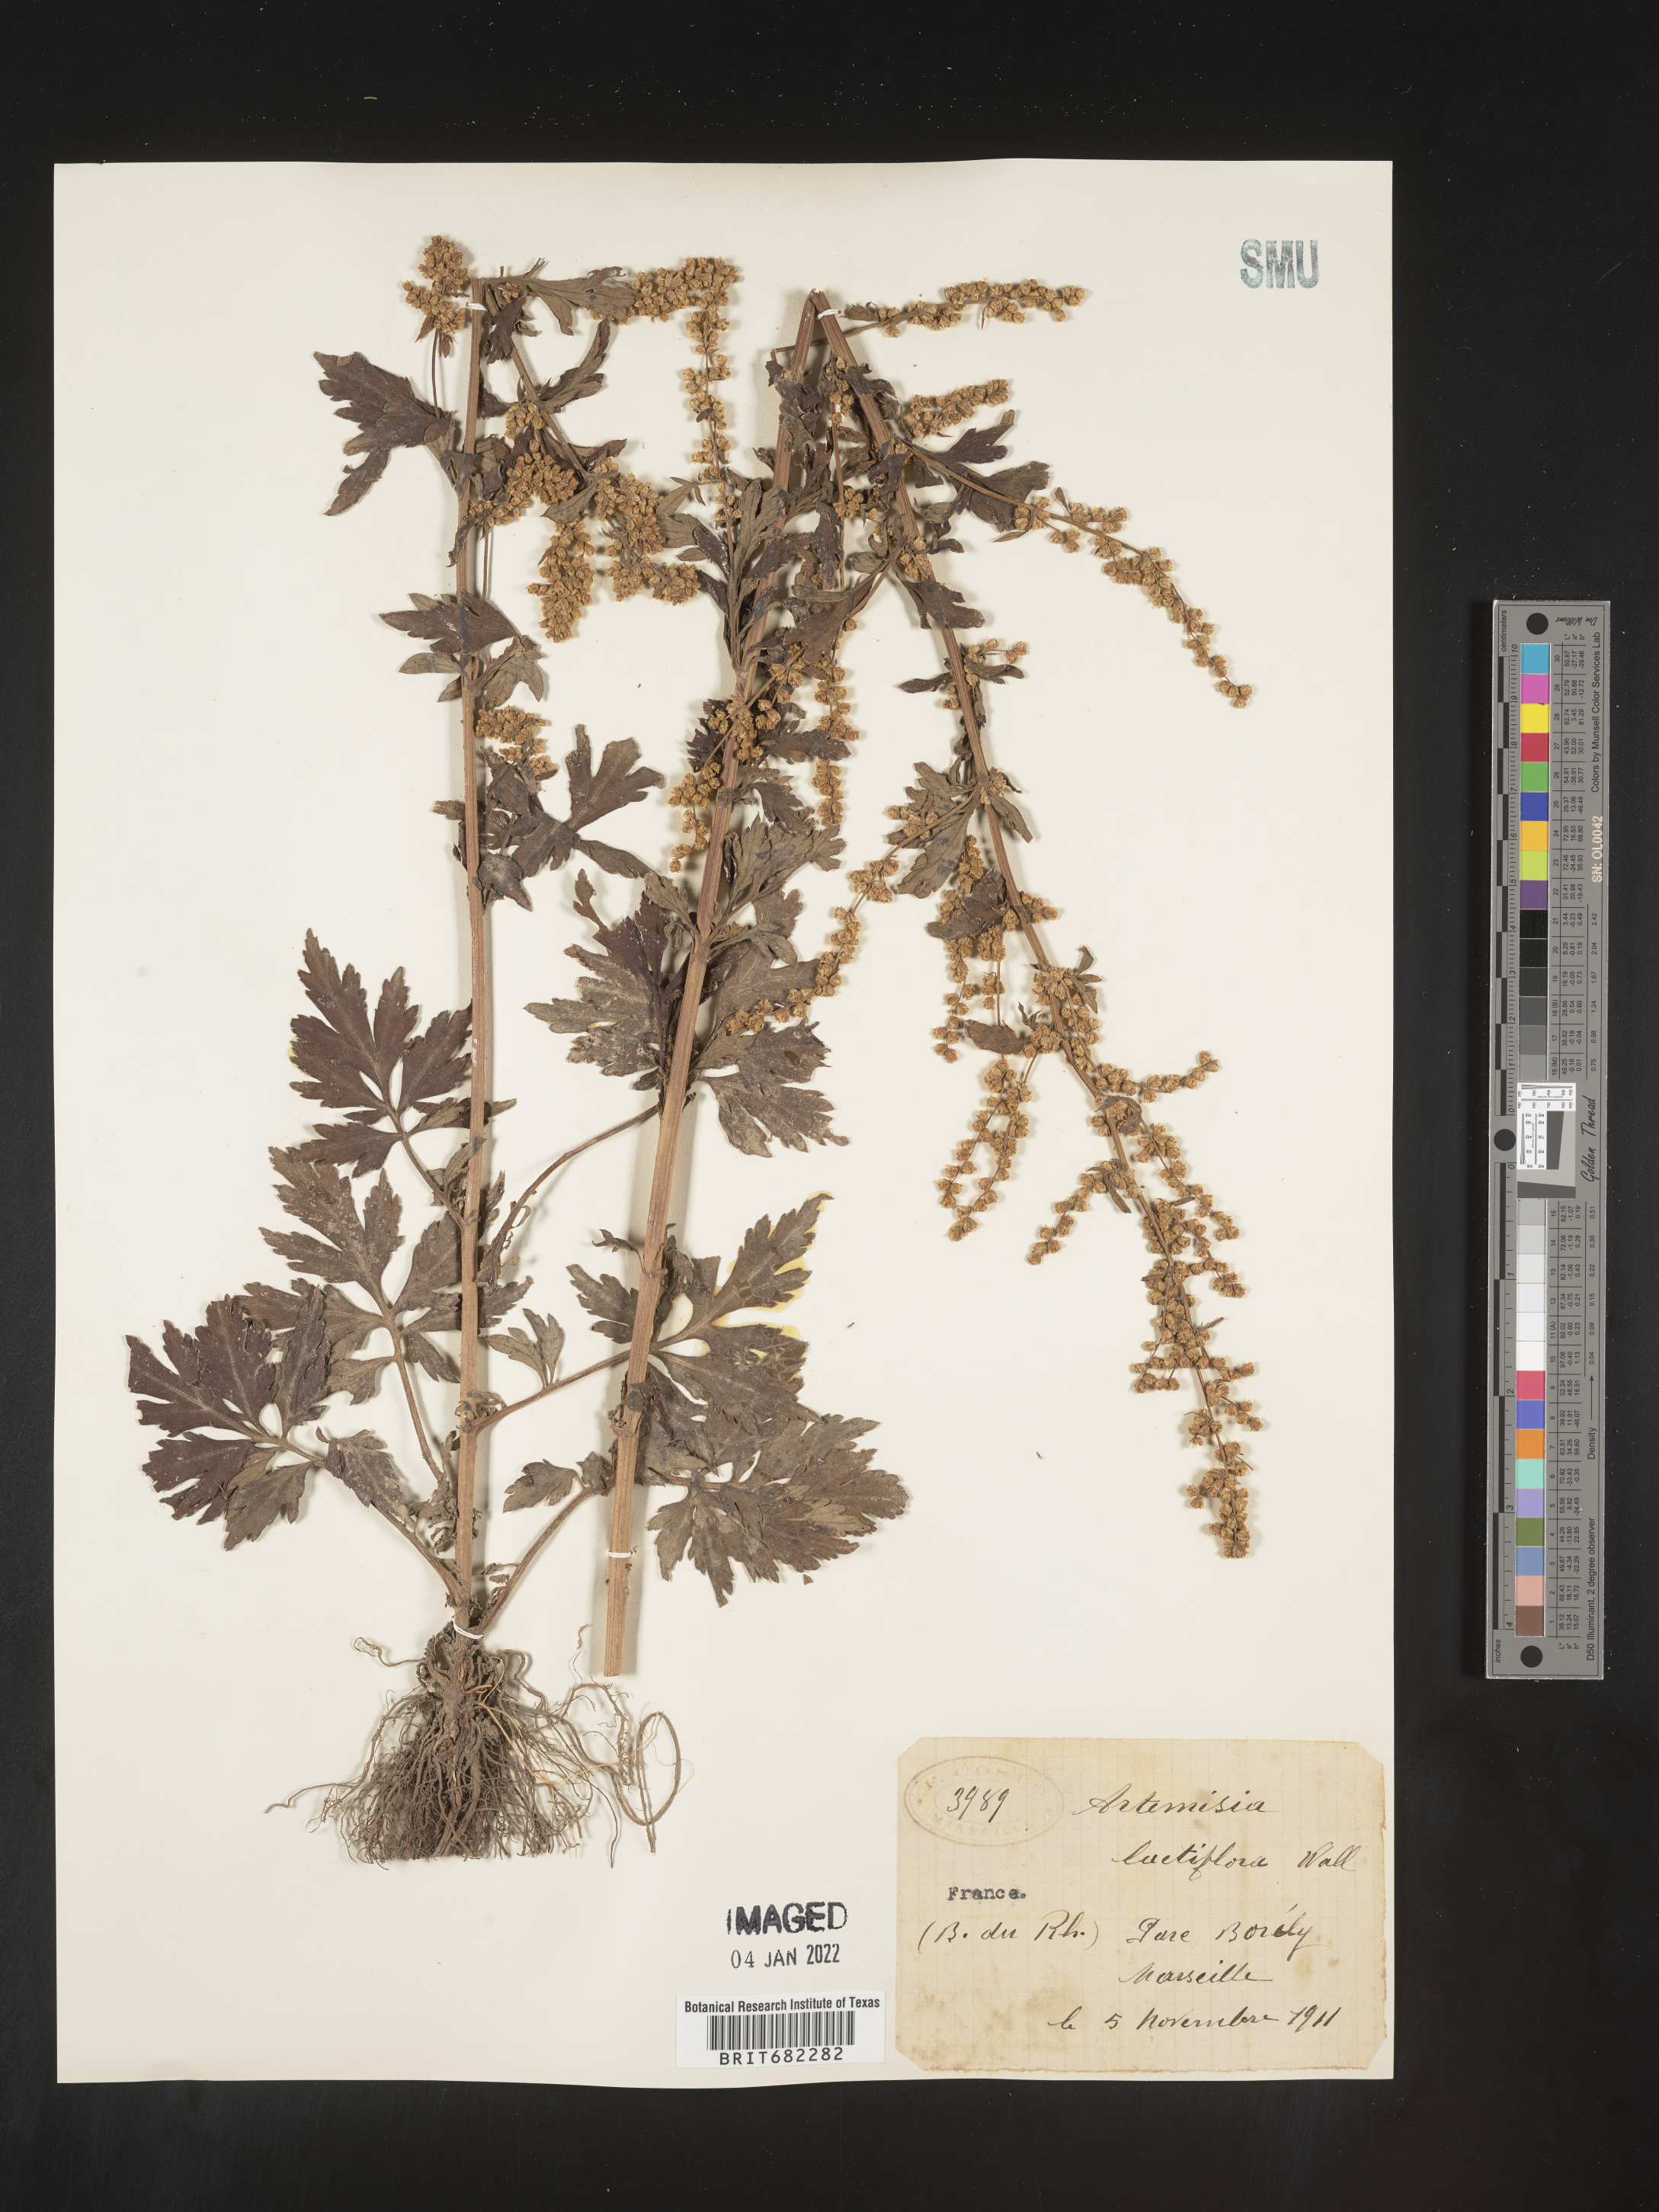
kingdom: Plantae
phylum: Tracheophyta
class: Magnoliopsida
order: Asterales
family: Asteraceae
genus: Artemisia
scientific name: Artemisia
